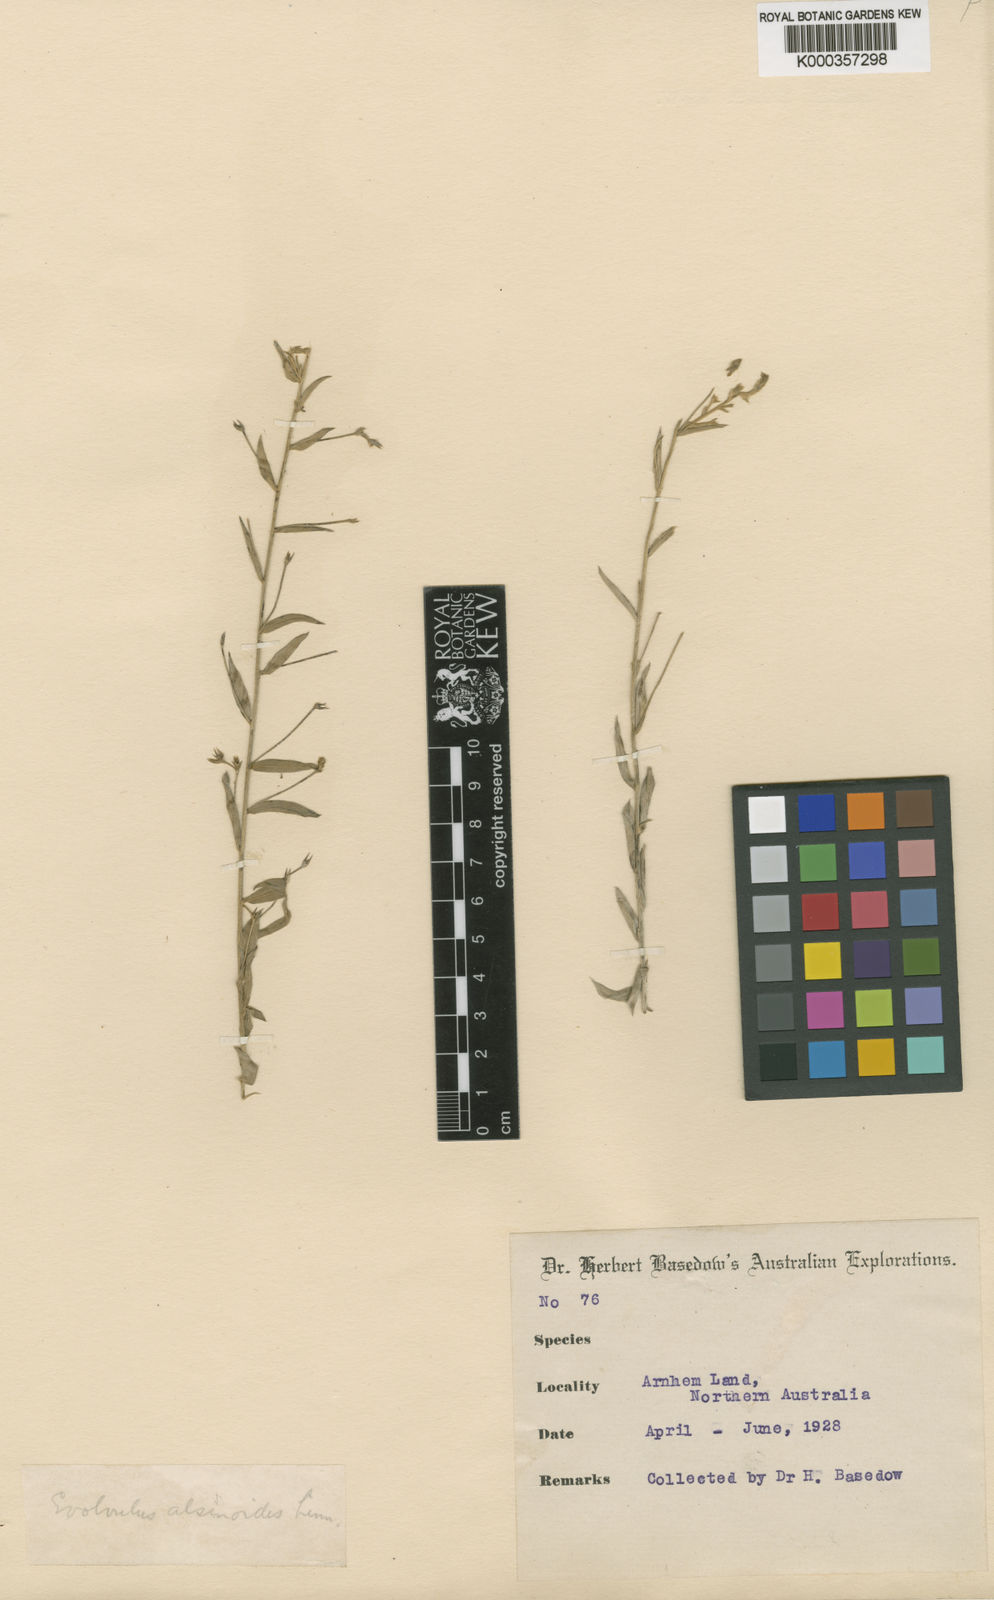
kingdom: Plantae
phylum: Tracheophyta
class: Magnoliopsida
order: Solanales
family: Convolvulaceae
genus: Evolvulus
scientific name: Evolvulus alsinoides
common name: Slender dwarf morning-glory
